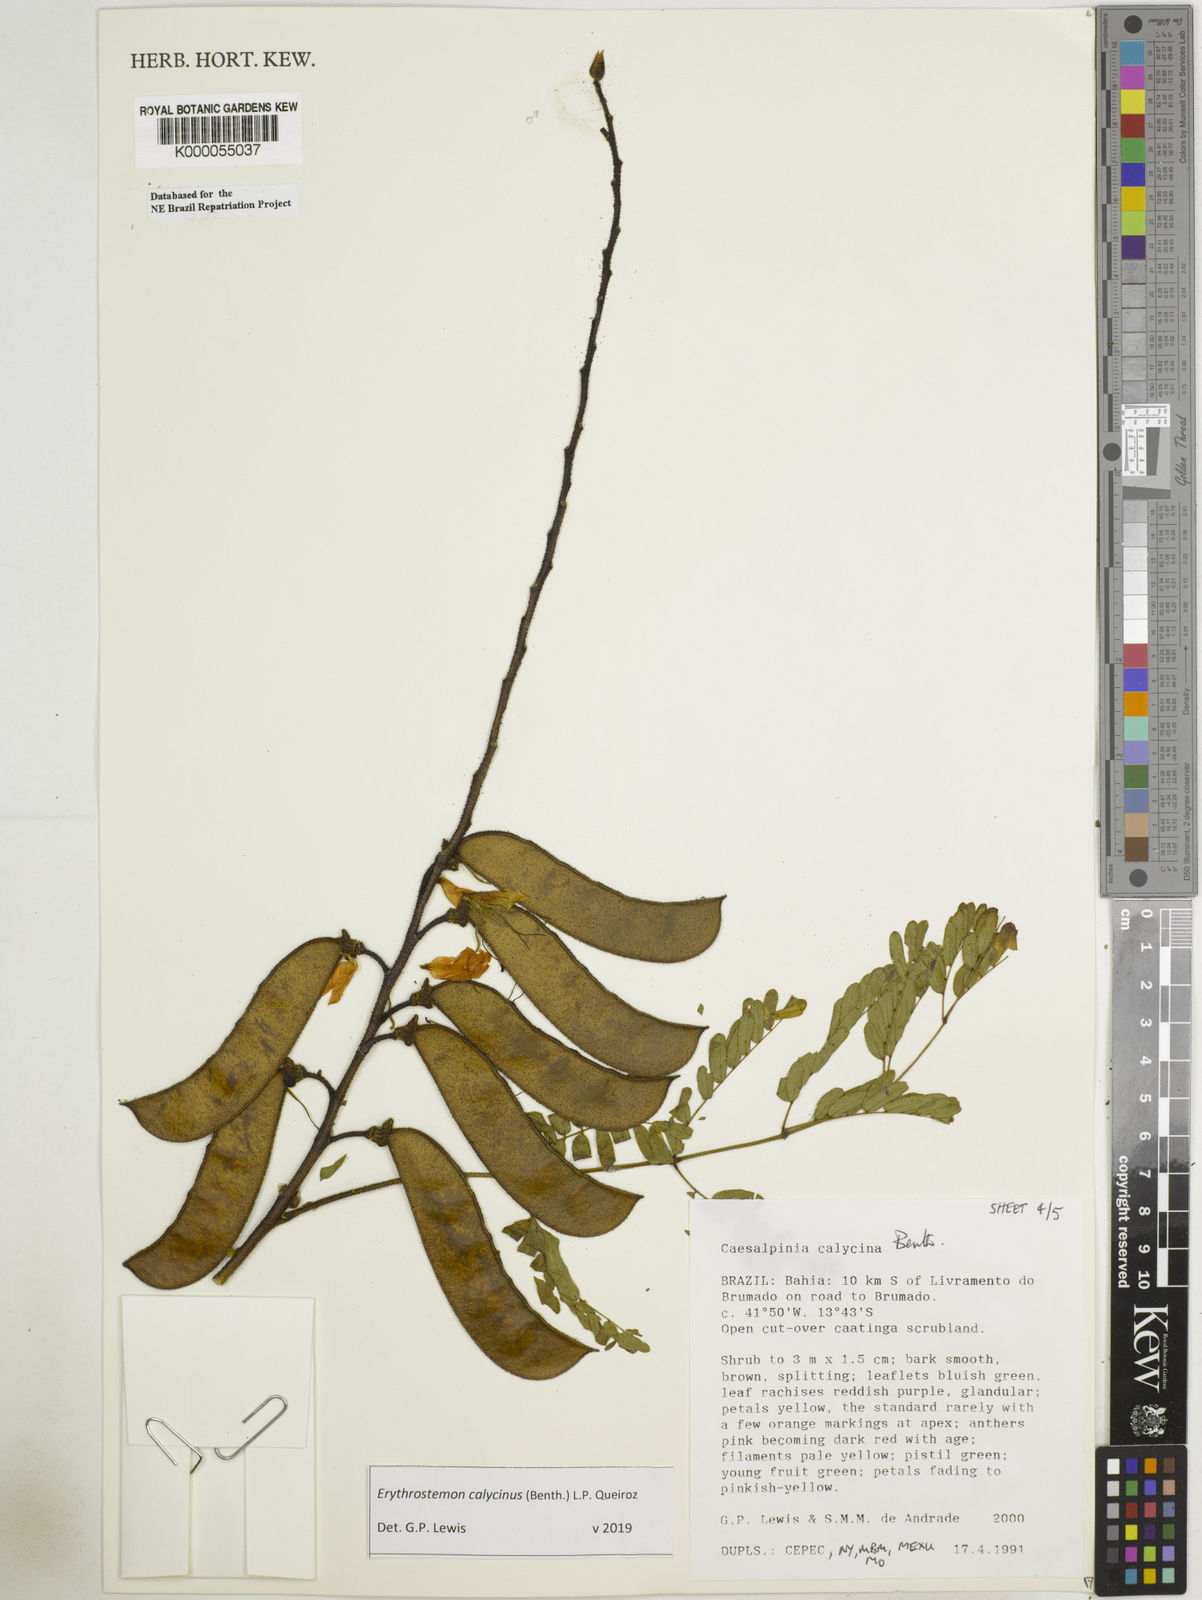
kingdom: Plantae
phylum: Tracheophyta
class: Magnoliopsida
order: Fabales
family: Fabaceae
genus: Erythrostemon
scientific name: Erythrostemon calycinus
